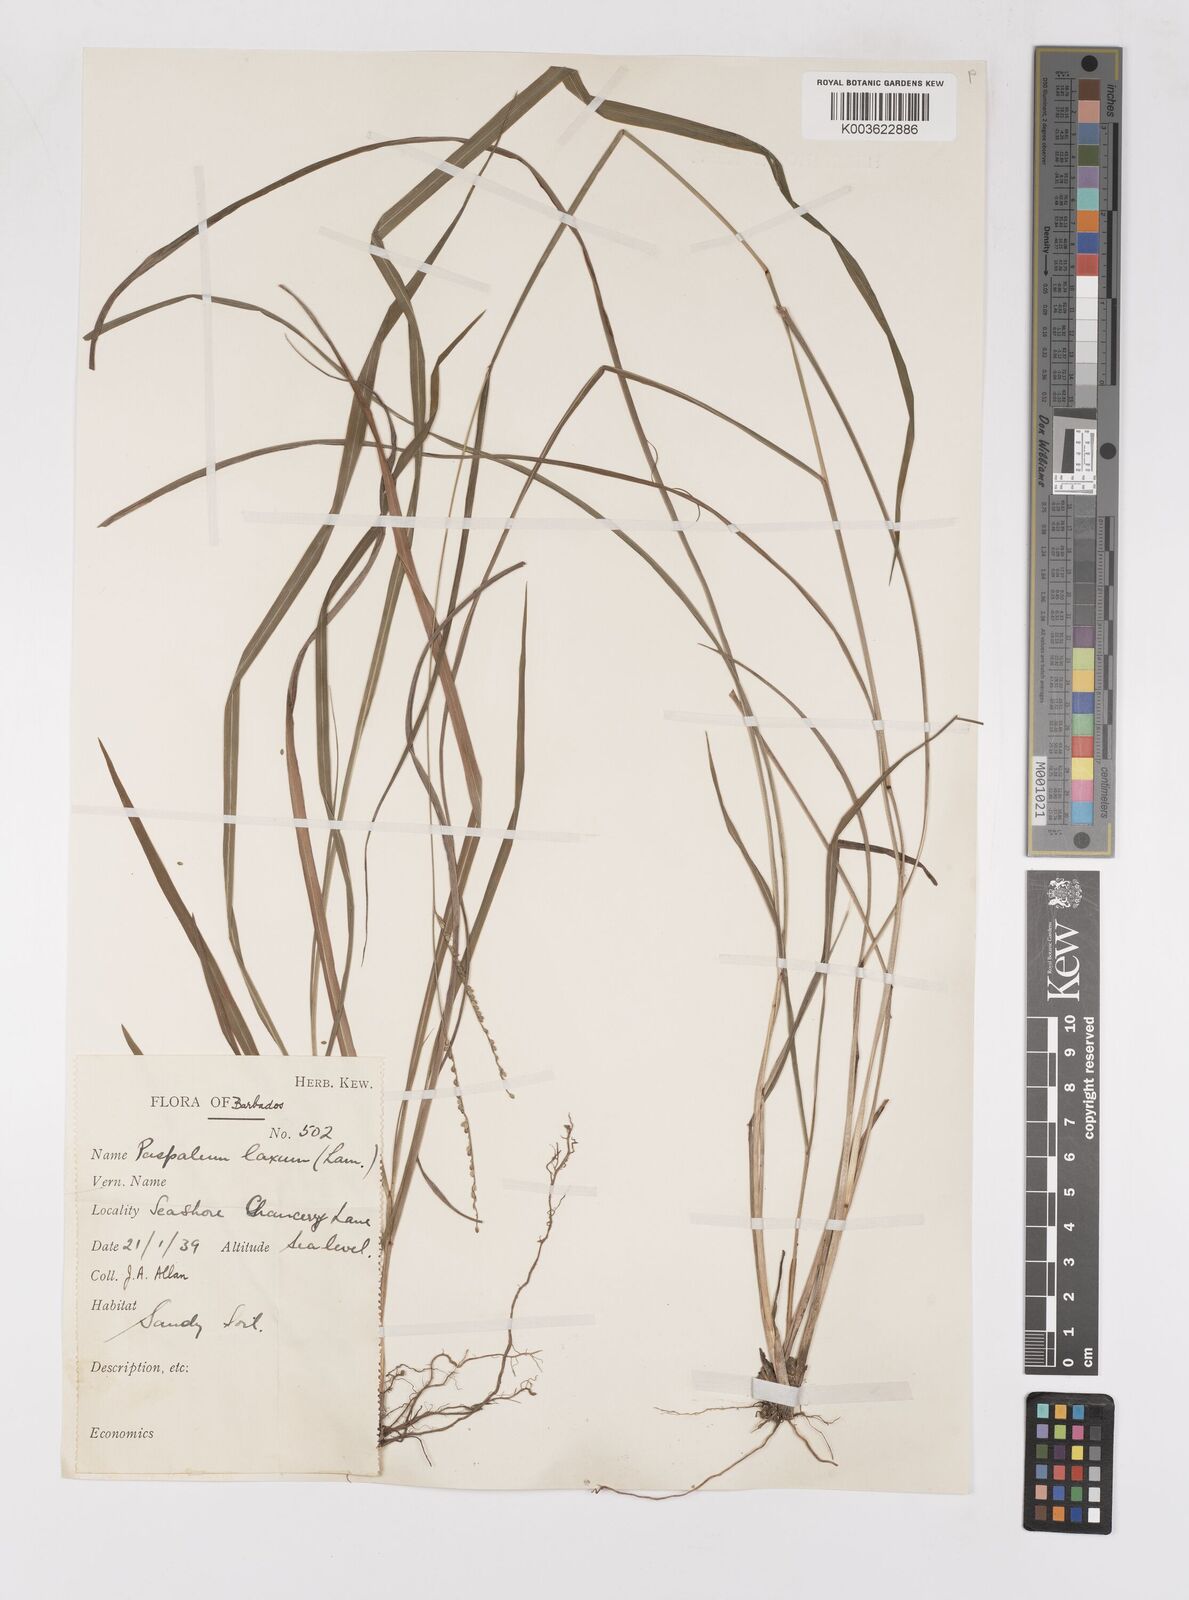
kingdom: Plantae
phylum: Tracheophyta
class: Liliopsida
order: Poales
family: Poaceae
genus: Paspalum
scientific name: Paspalum laxum
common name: Coconut paspalum
